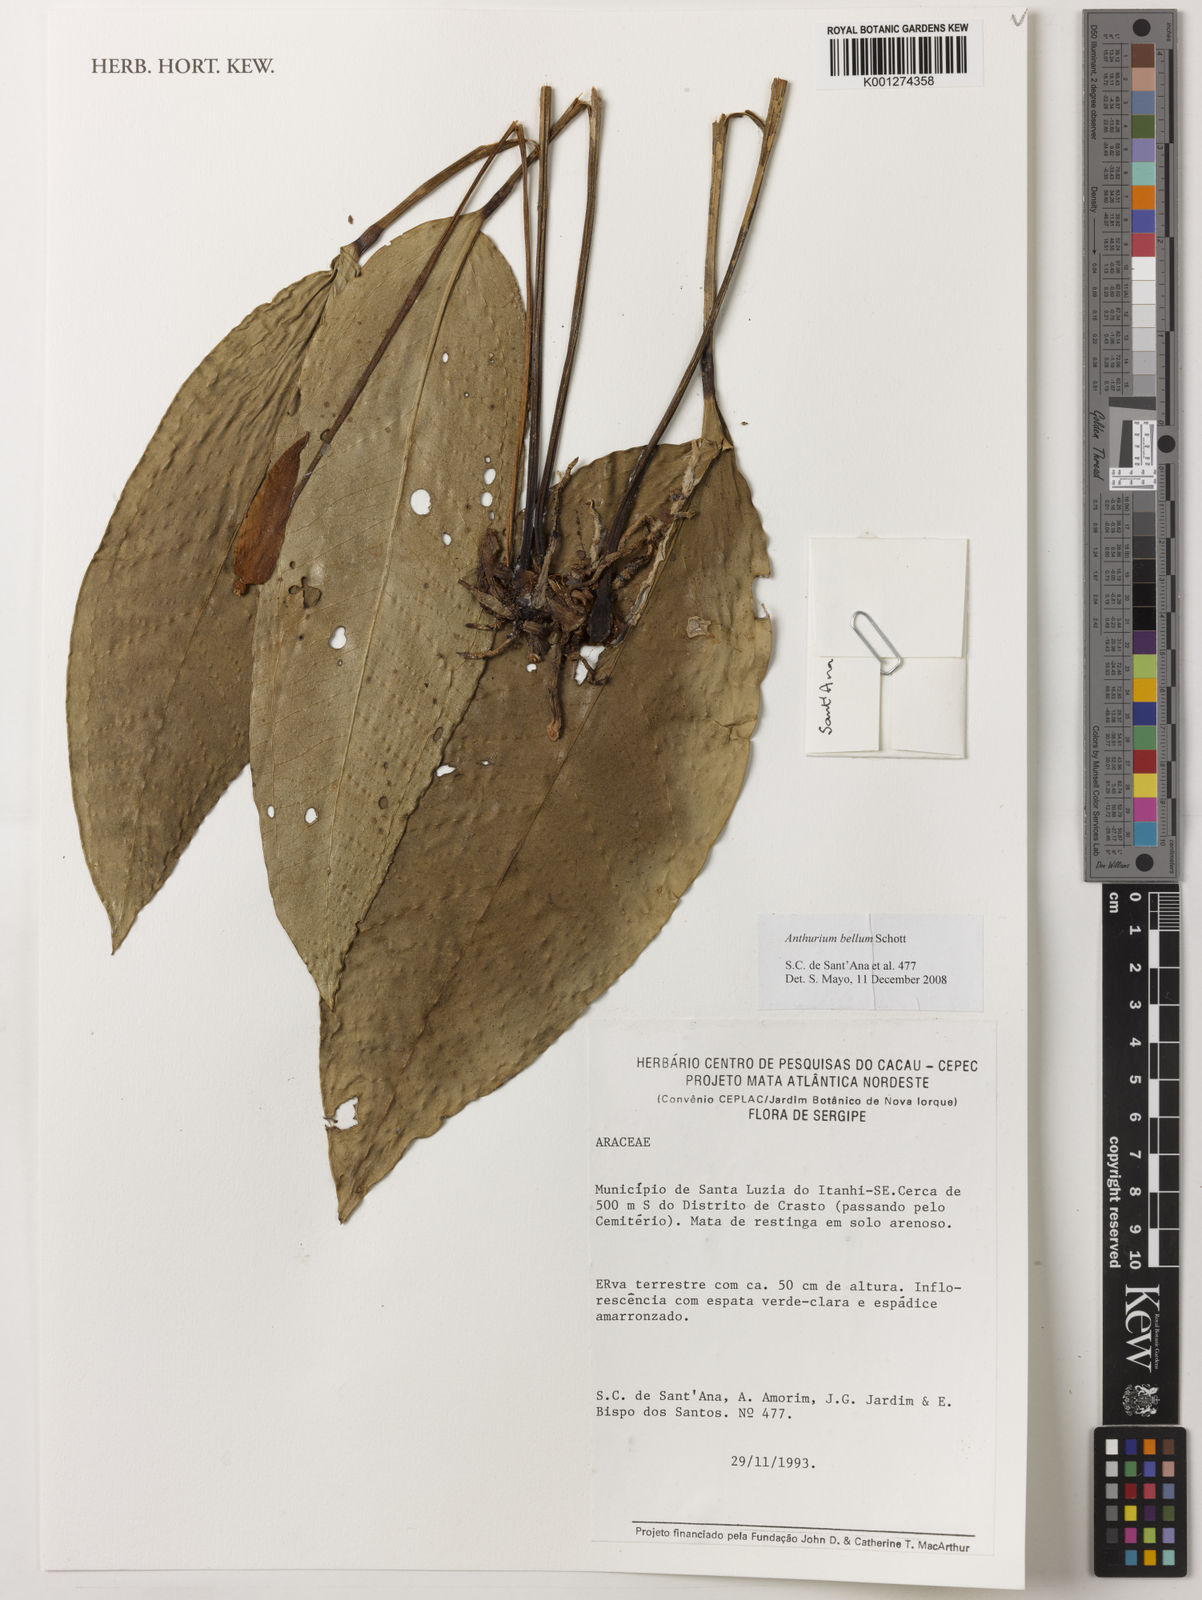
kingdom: Plantae
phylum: Tracheophyta
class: Liliopsida
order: Alismatales
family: Araceae
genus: Anthurium
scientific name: Anthurium bellum
